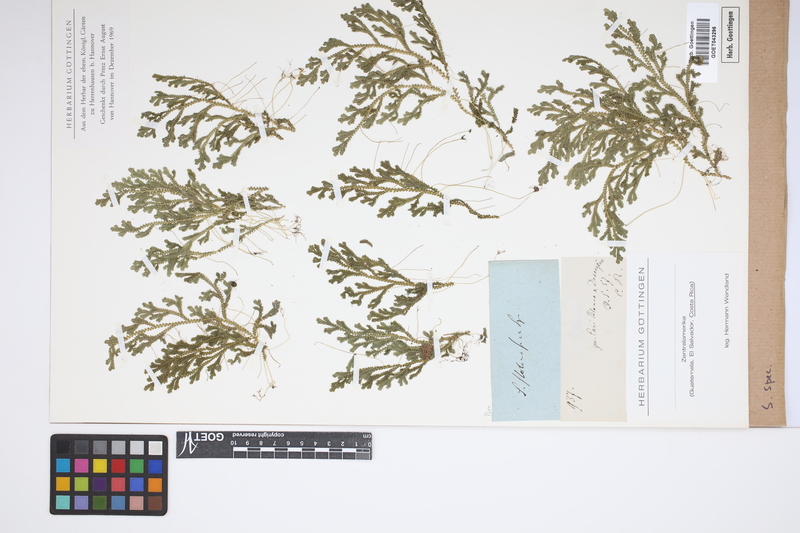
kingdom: Plantae
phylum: Tracheophyta
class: Lycopodiopsida
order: Selaginellales
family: Selaginellaceae
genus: Selaginella
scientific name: Selaginella
